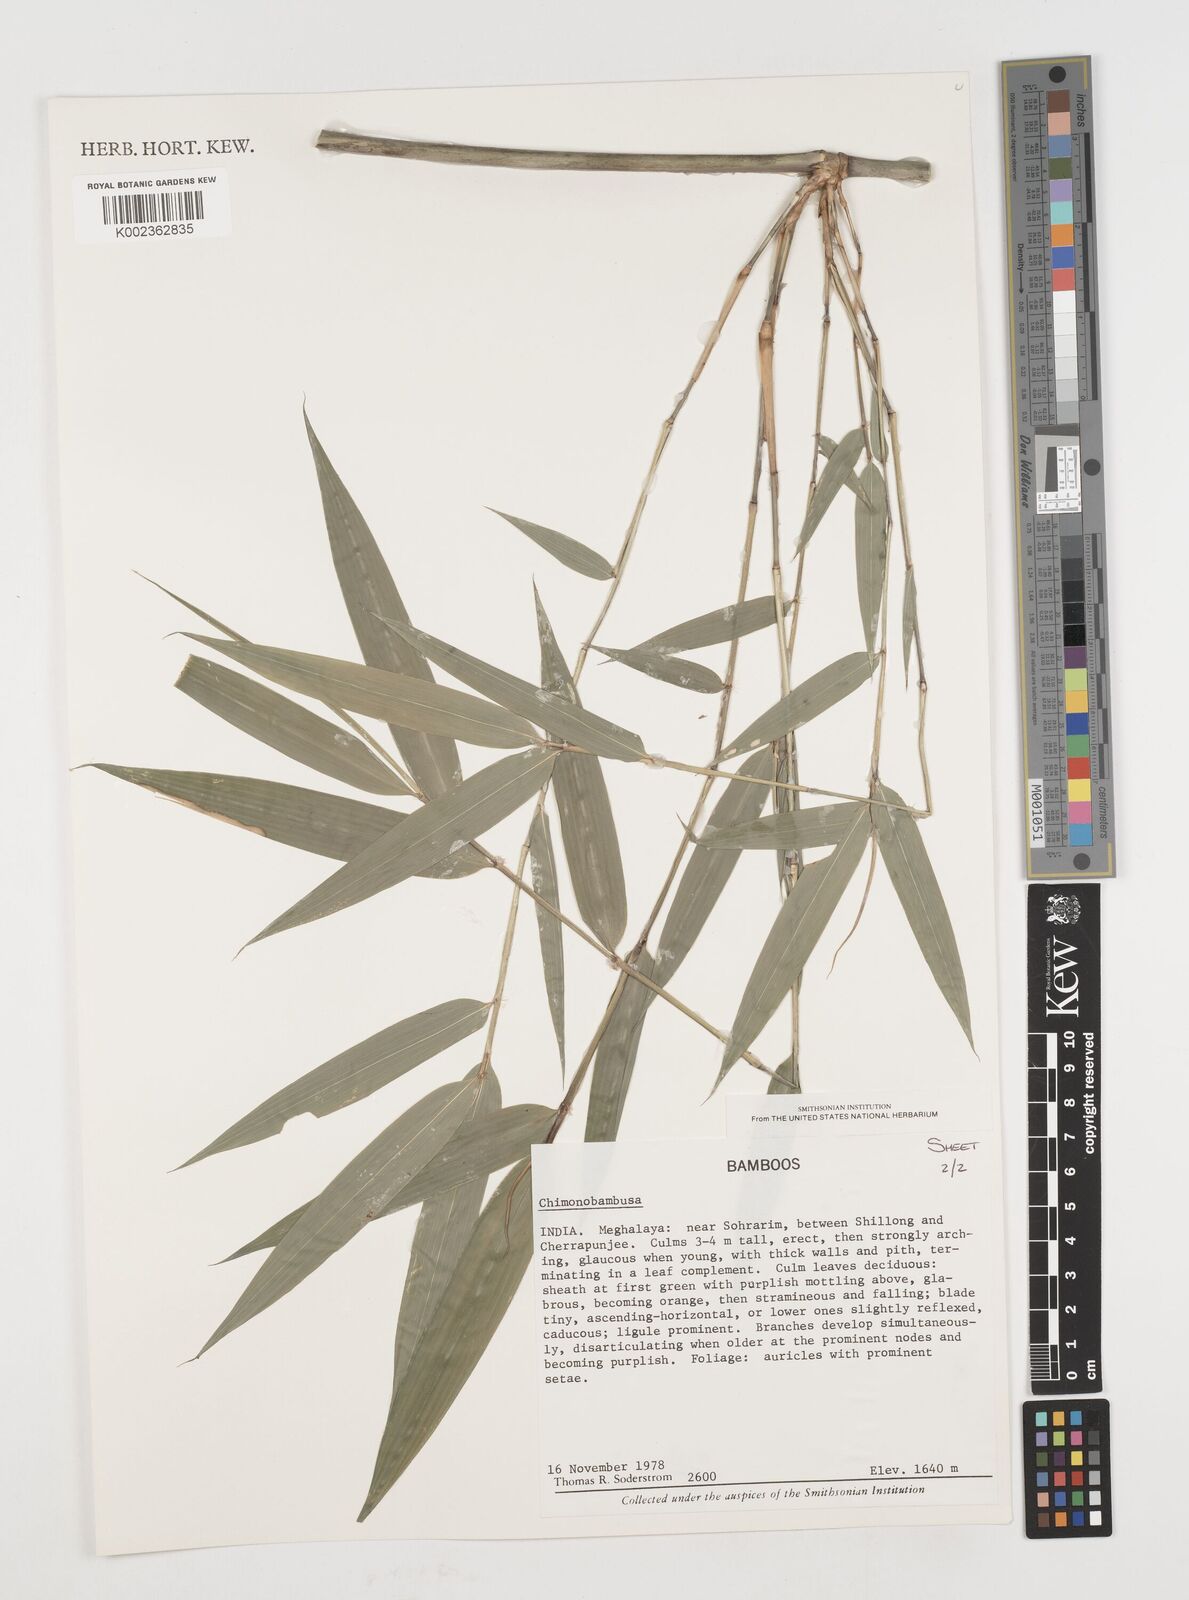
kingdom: Plantae
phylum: Tracheophyta
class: Liliopsida
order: Poales
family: Poaceae
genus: Chimonobambusa
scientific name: Chimonobambusa
